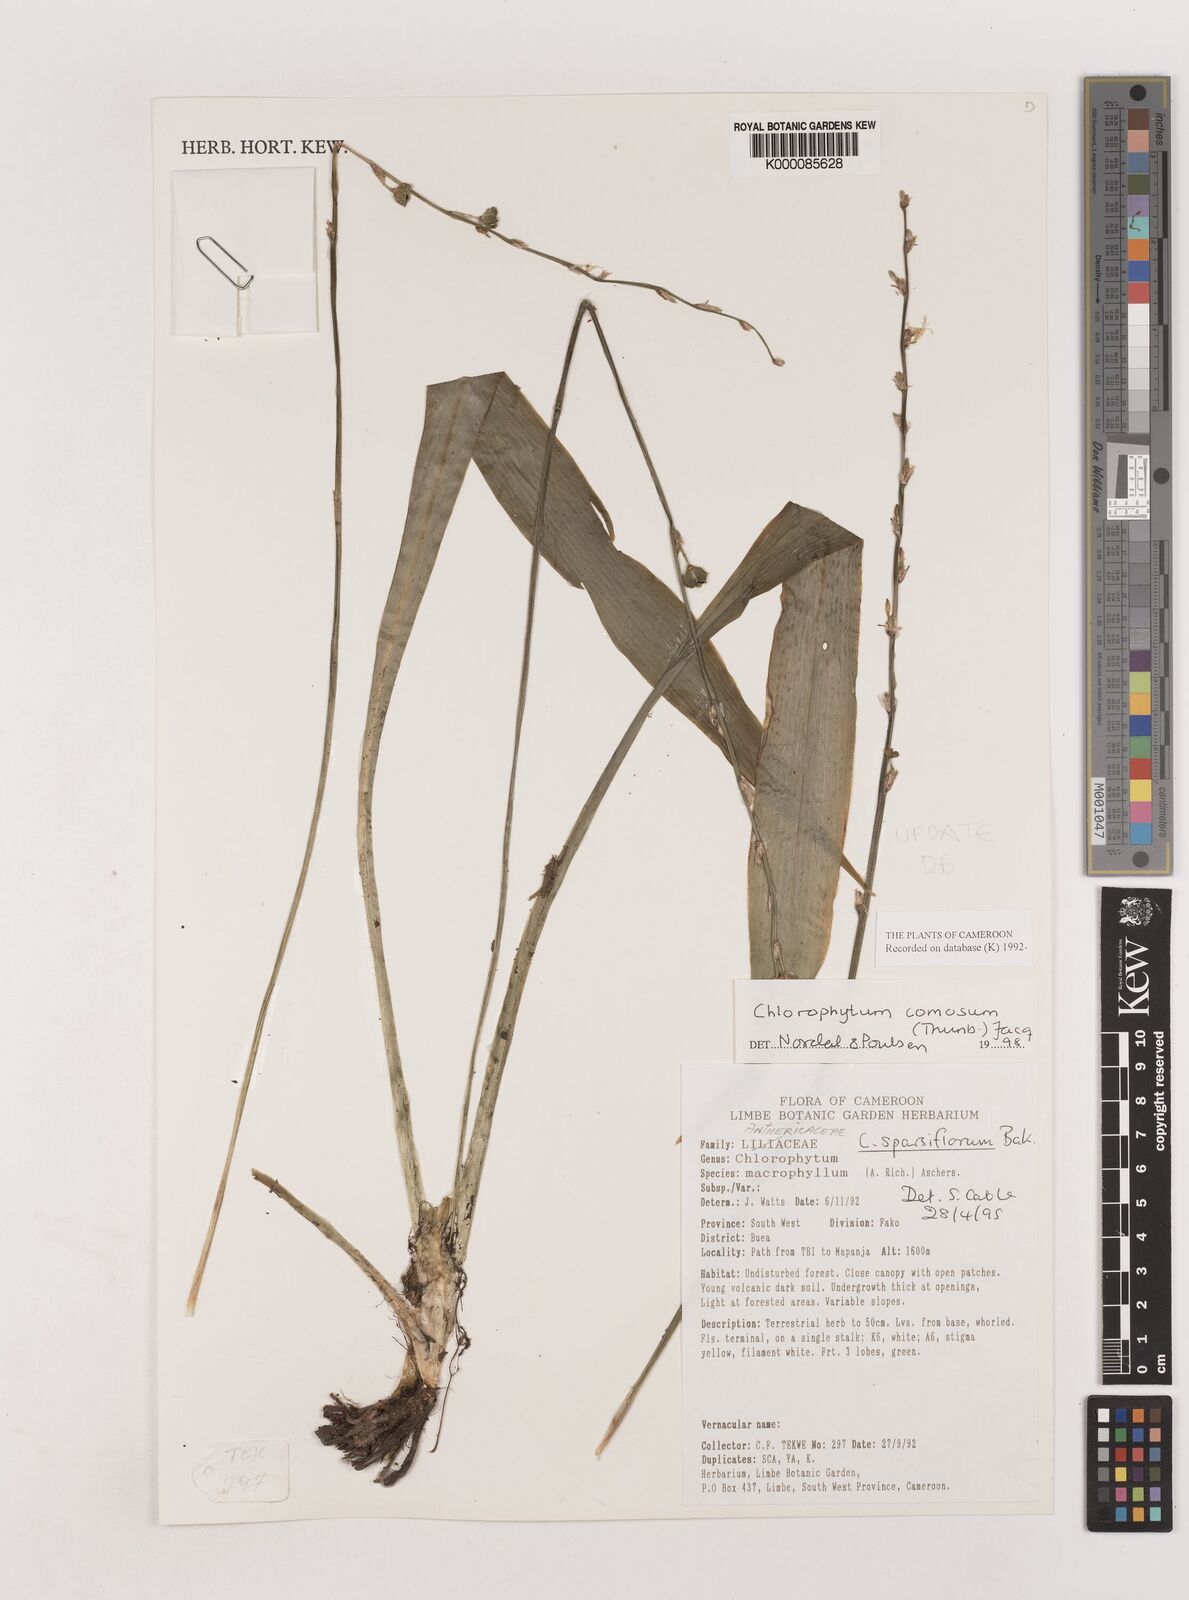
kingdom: Plantae
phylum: Tracheophyta
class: Liliopsida
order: Asparagales
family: Asparagaceae
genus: Chlorophytum
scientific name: Chlorophytum sparsiflorum
